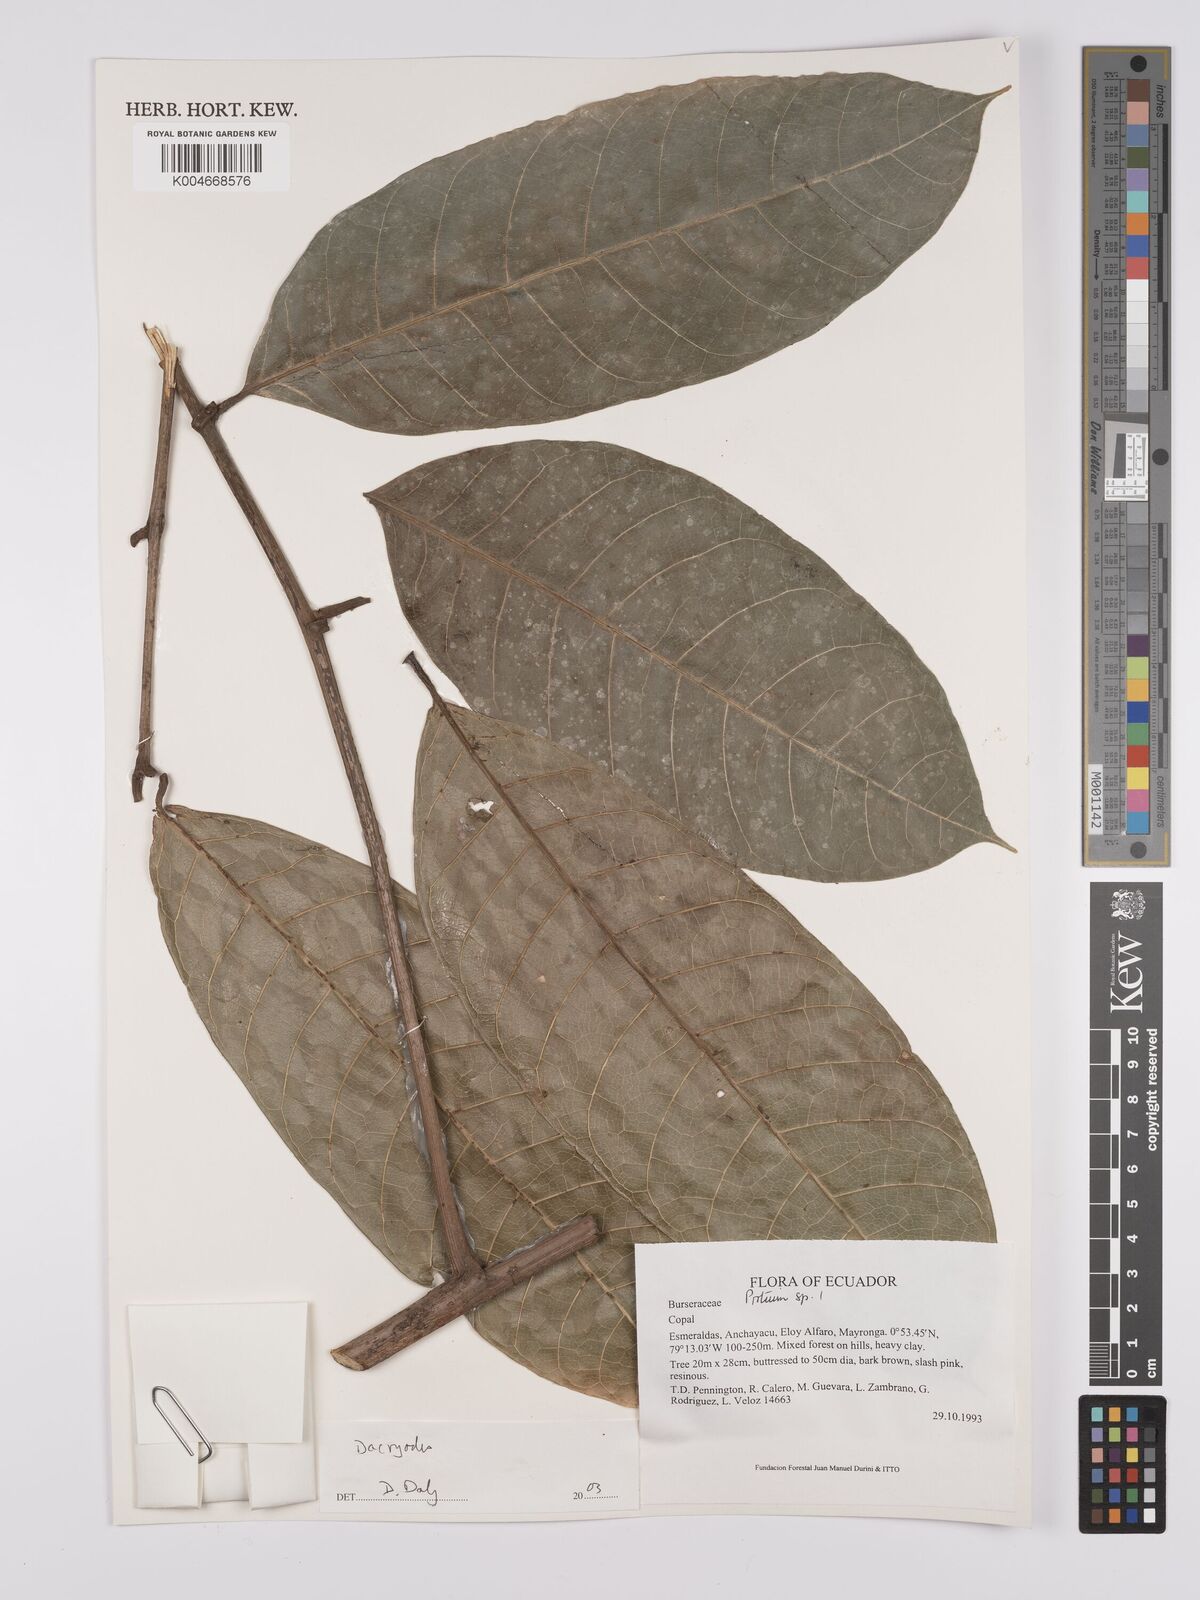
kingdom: Plantae
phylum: Tracheophyta
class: Magnoliopsida
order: Sapindales
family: Burseraceae
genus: Dacryodes
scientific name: Dacryodes
